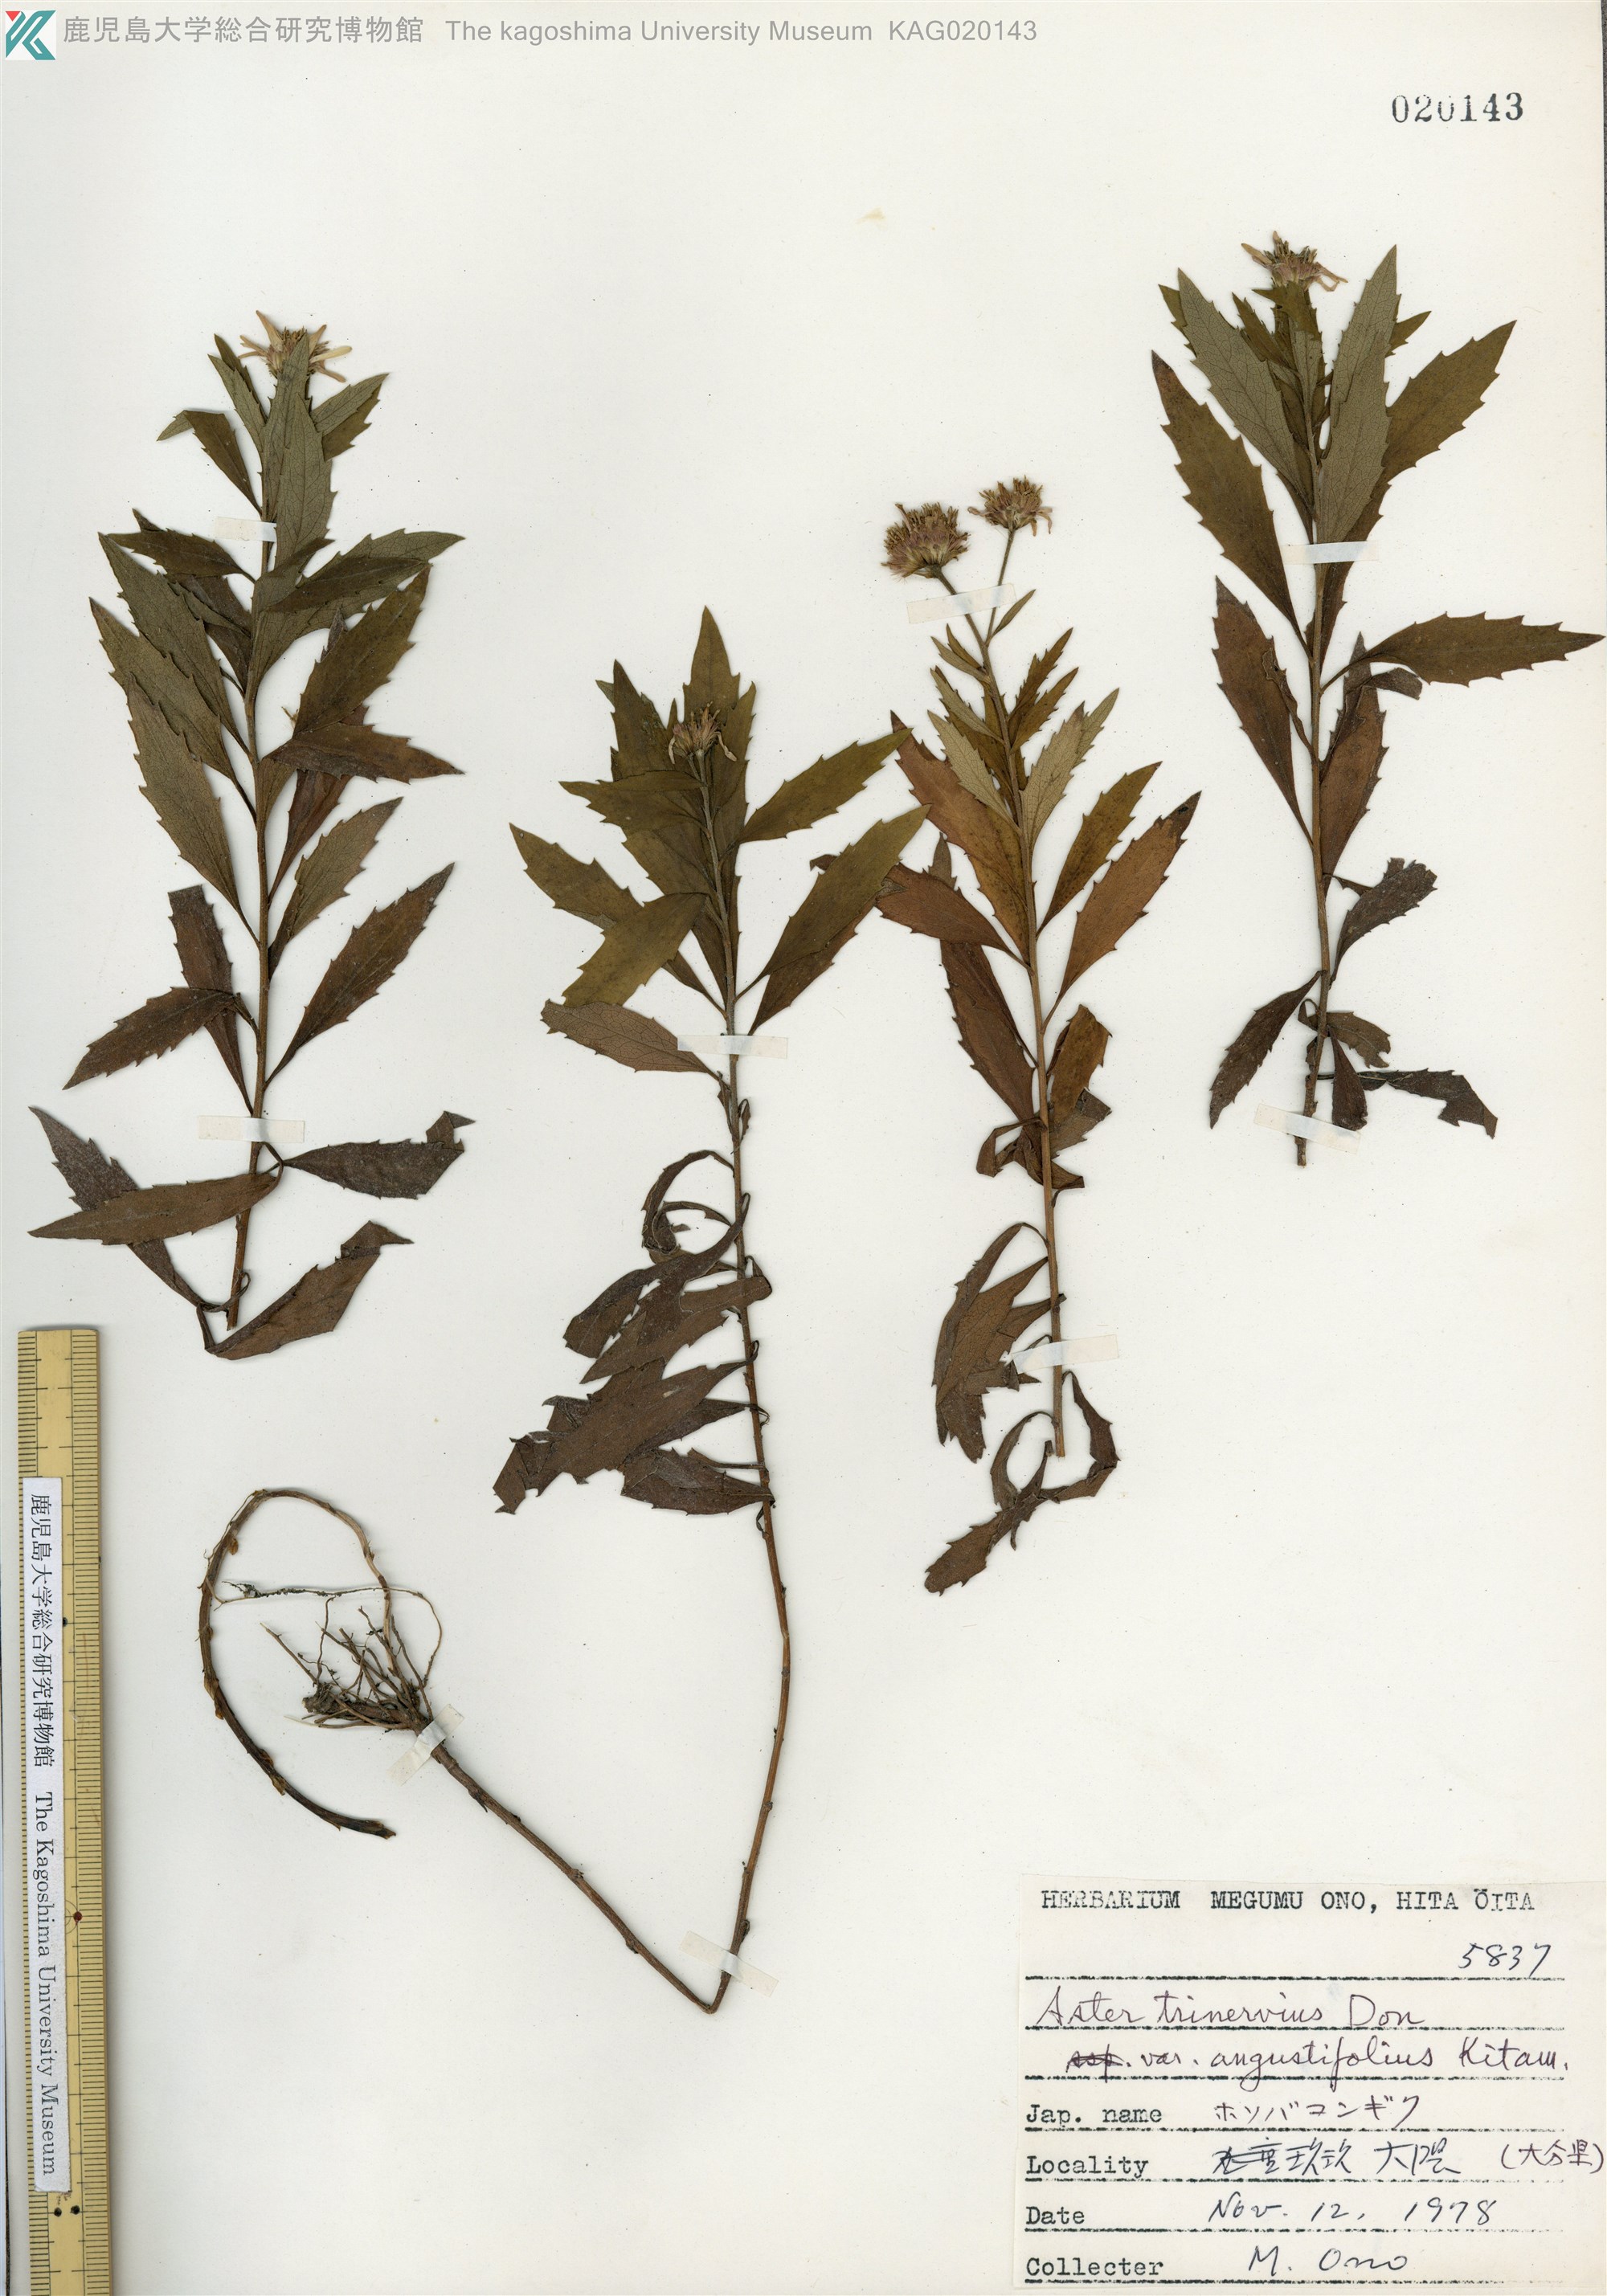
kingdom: Plantae
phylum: Tracheophyta
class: Magnoliopsida
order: Asterales
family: Asteraceae
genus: Aster
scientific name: Aster microcephalus
